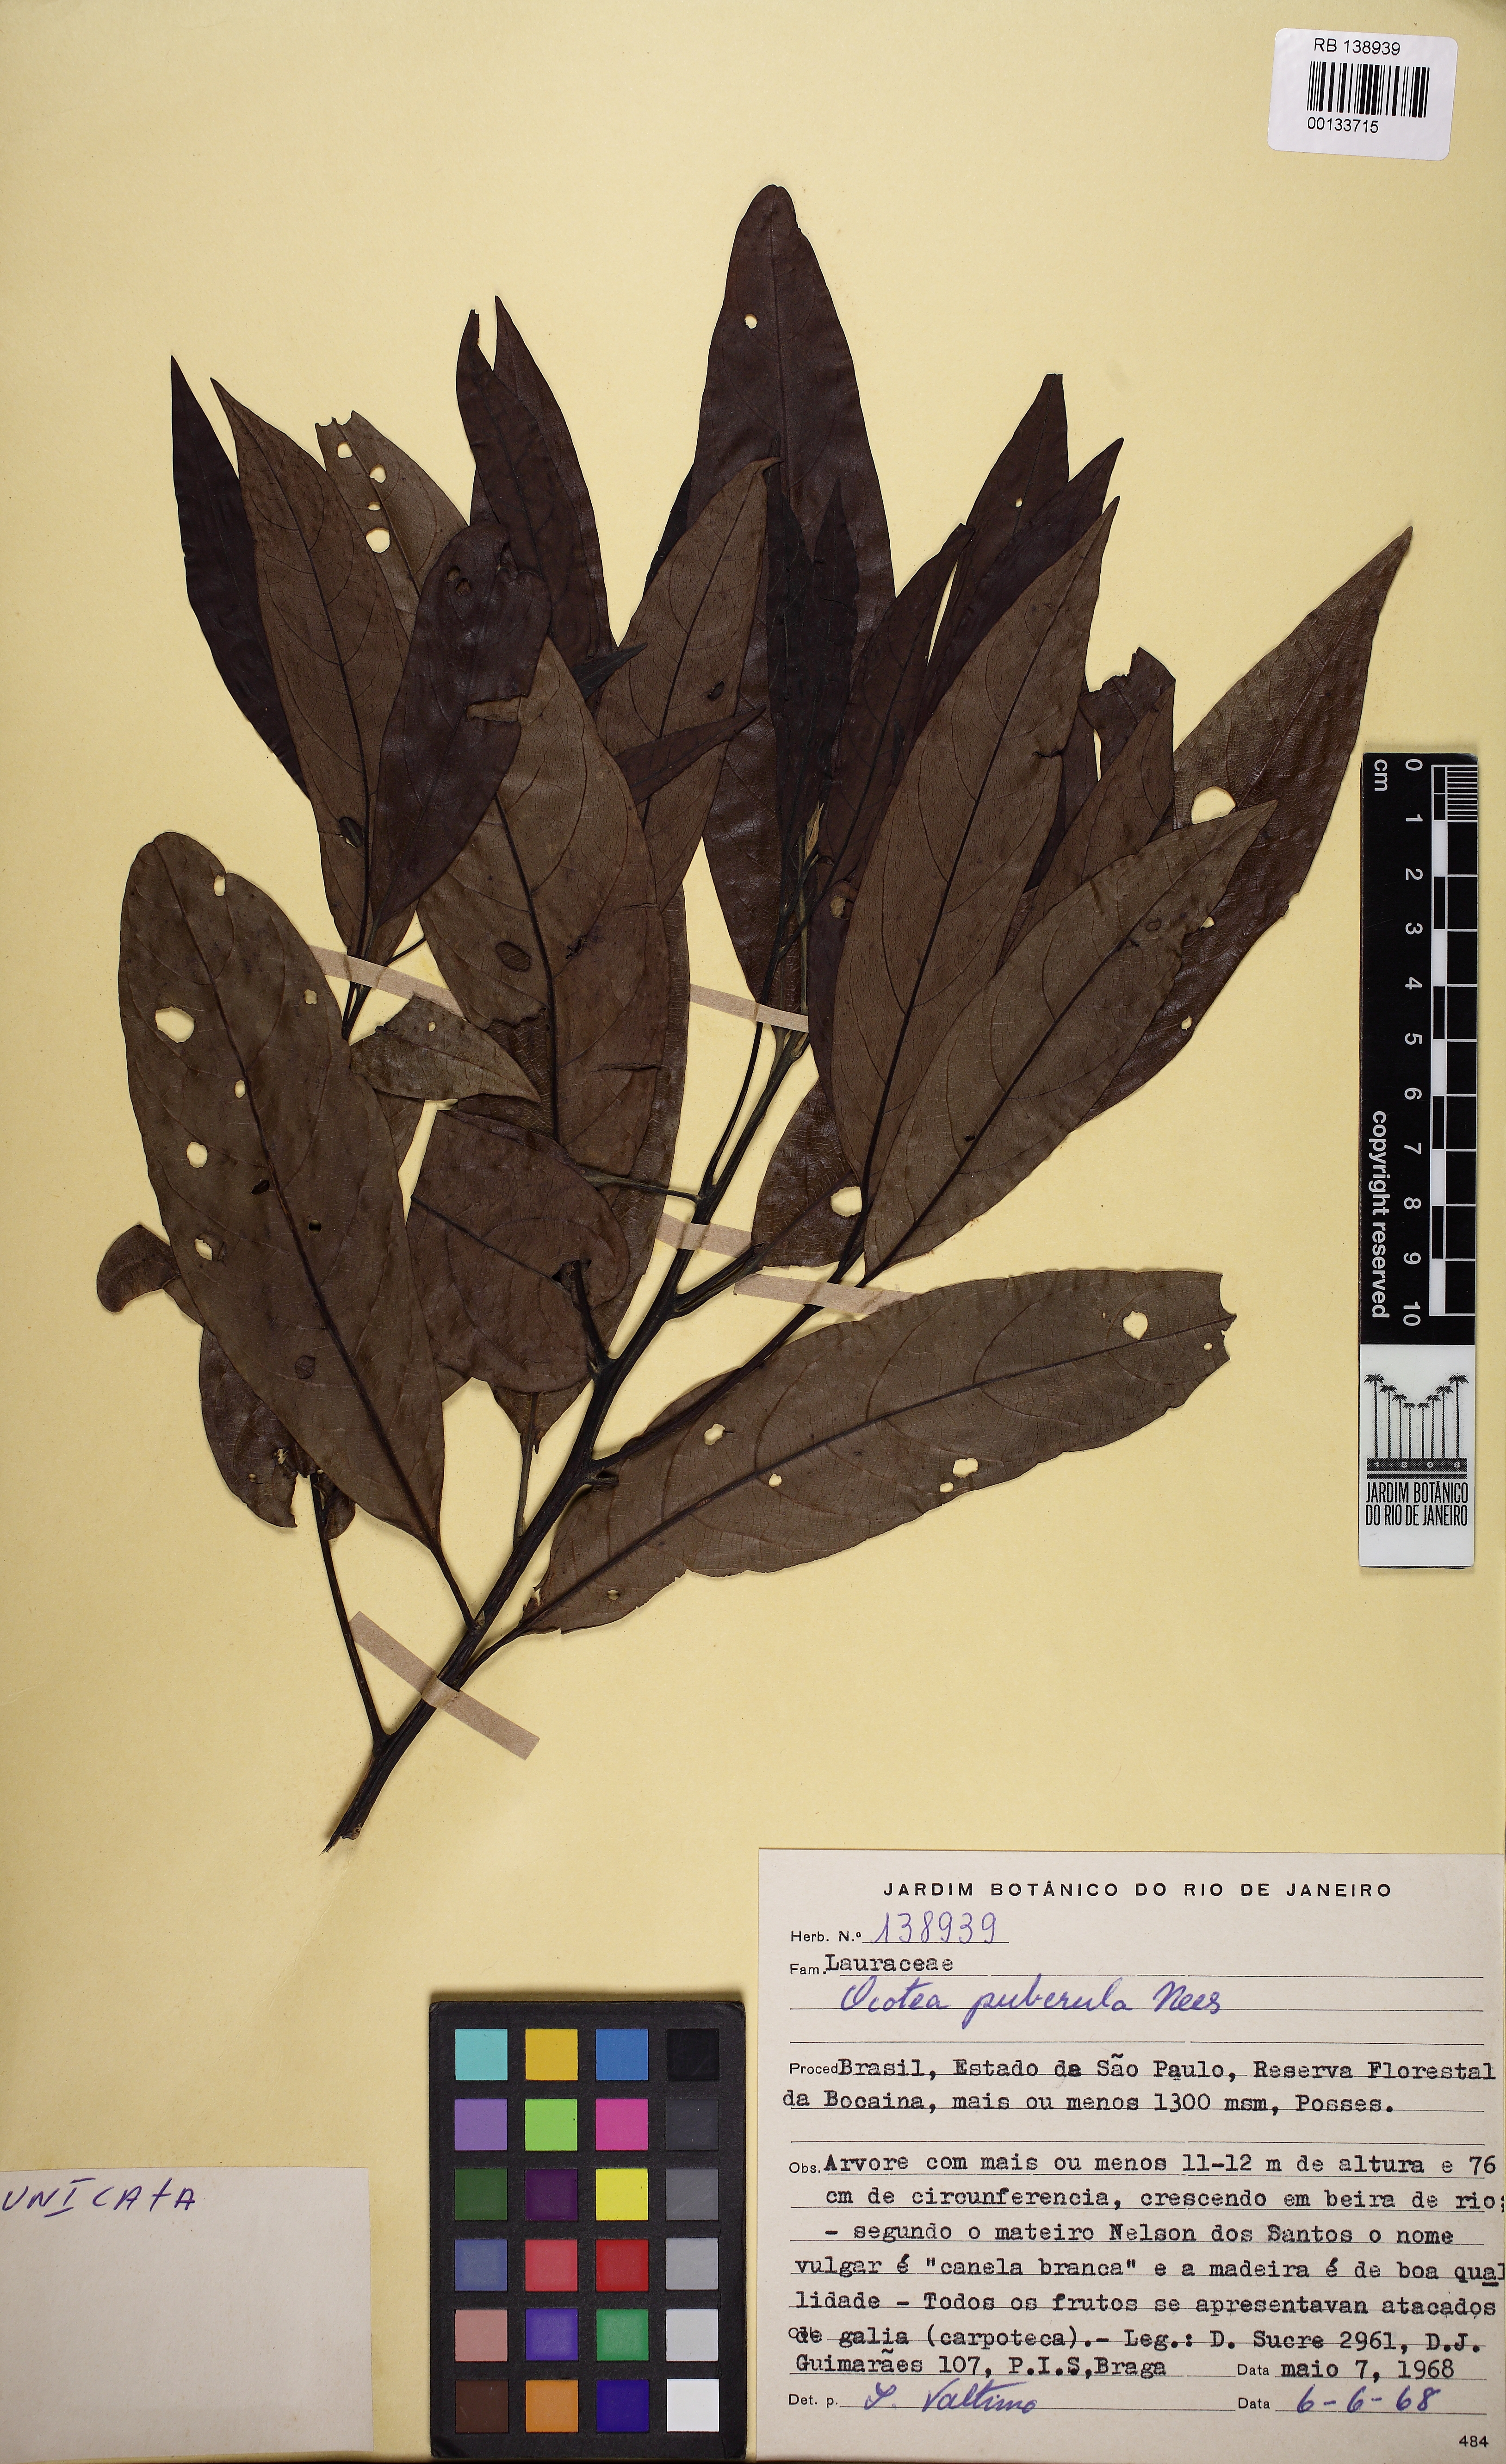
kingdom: Plantae
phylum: Tracheophyta
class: Magnoliopsida
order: Laurales
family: Lauraceae
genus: Ocotea
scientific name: Ocotea puberula
